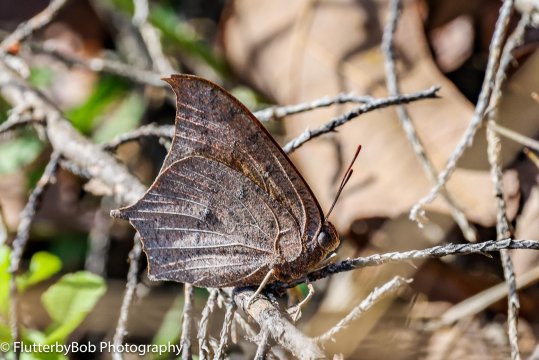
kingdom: Animalia
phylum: Arthropoda
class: Insecta
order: Lepidoptera
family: Nymphalidae
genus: Anaea
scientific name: Anaea andria
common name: Goatweed Leafwing
